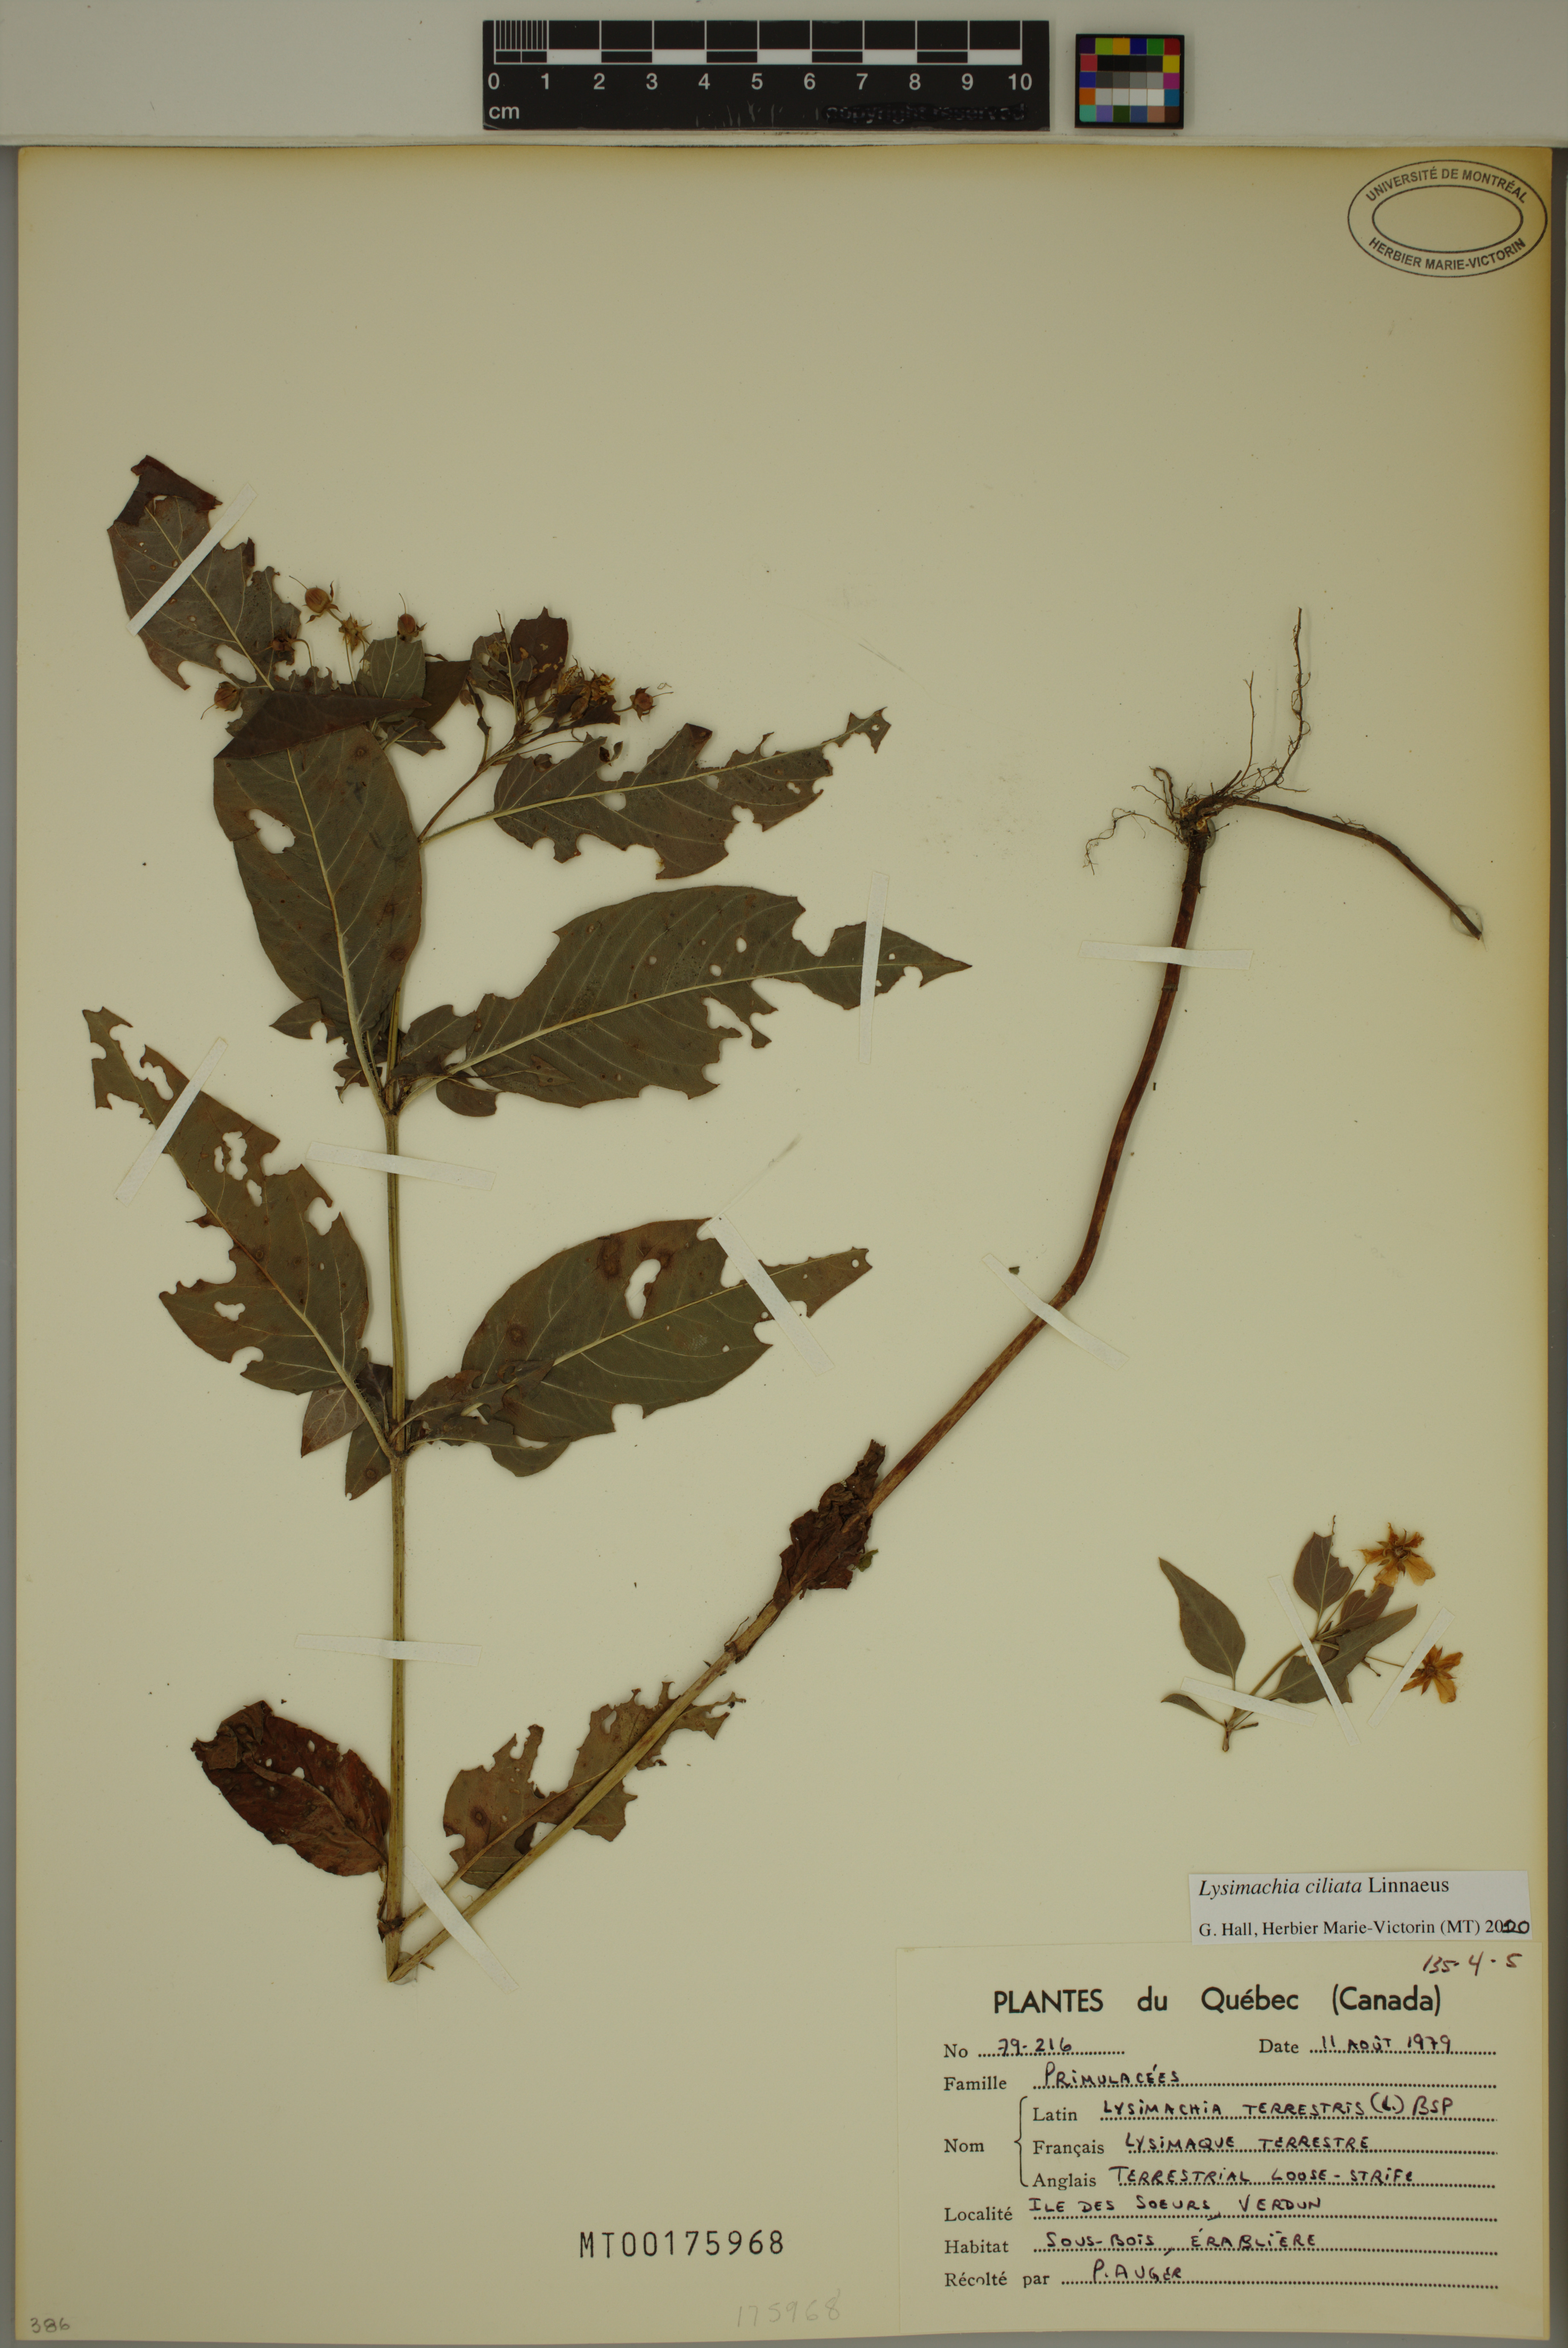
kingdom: Plantae
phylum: Tracheophyta
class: Magnoliopsida
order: Ericales
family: Primulaceae
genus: Lysimachia
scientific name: Lysimachia ciliata
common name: Fringed loosestrife
